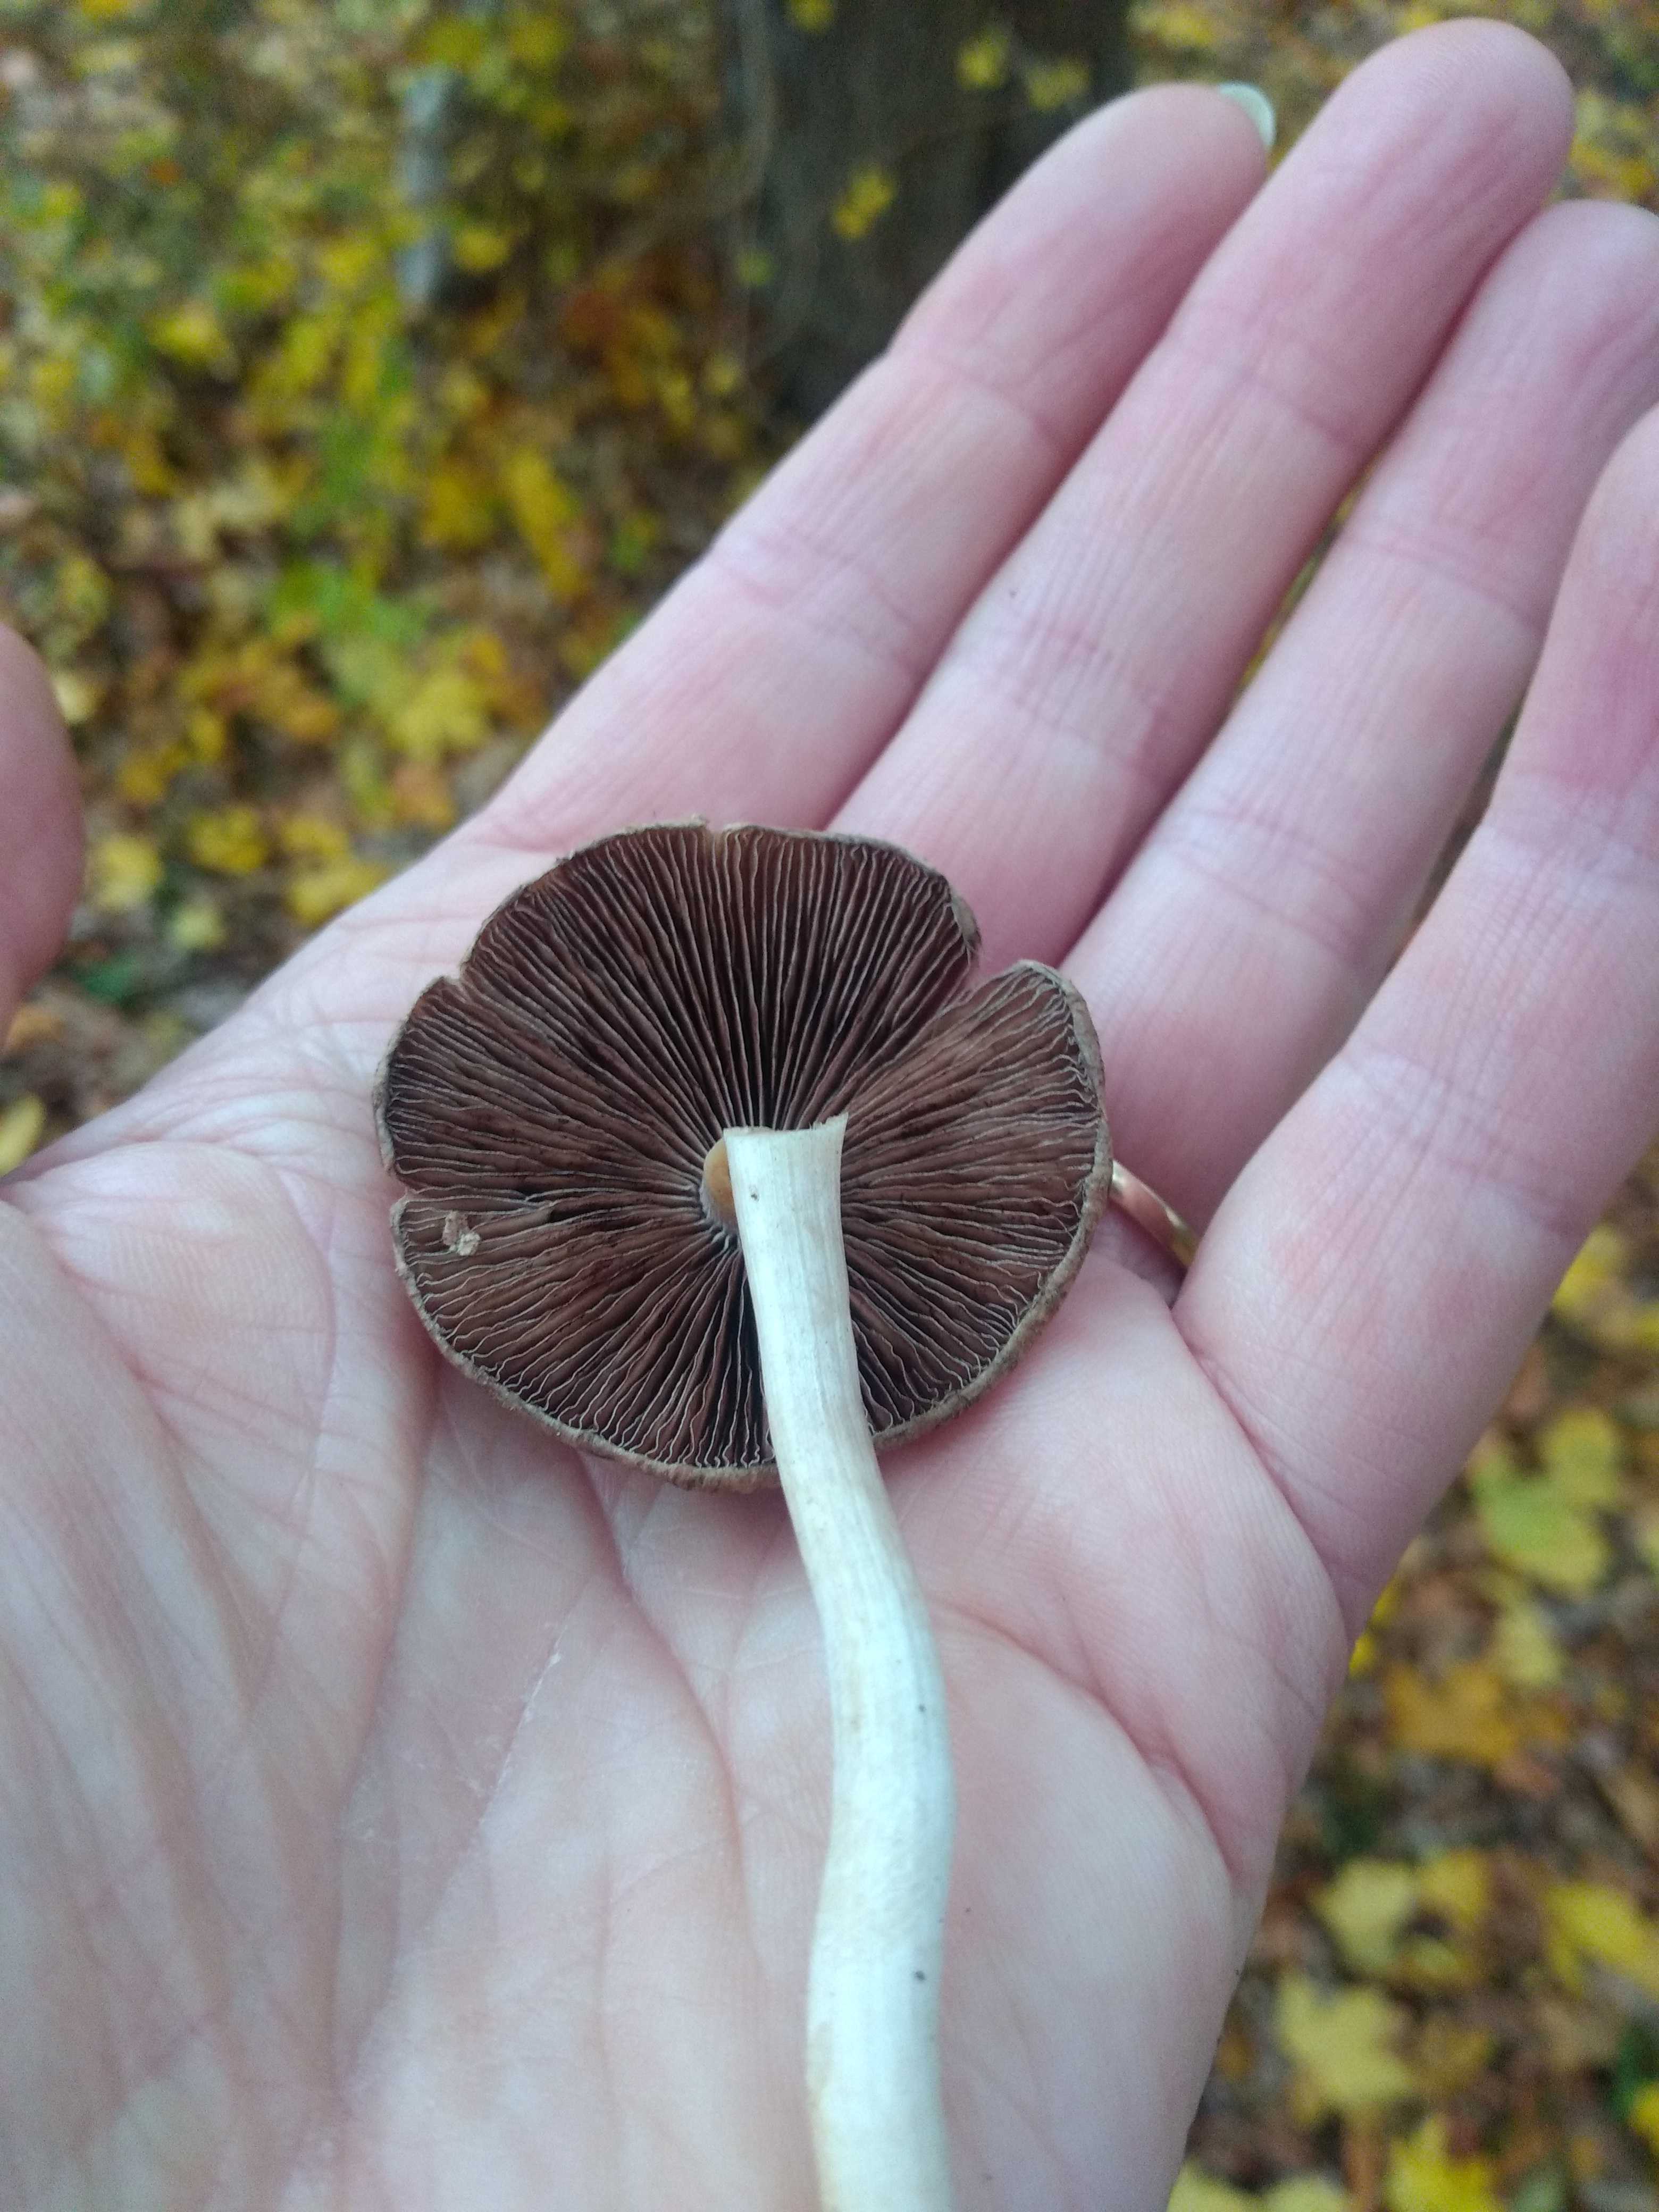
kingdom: Fungi
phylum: Basidiomycota
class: Agaricomycetes
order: Agaricales
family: Psathyrellaceae
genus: Psathyrella
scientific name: Psathyrella
